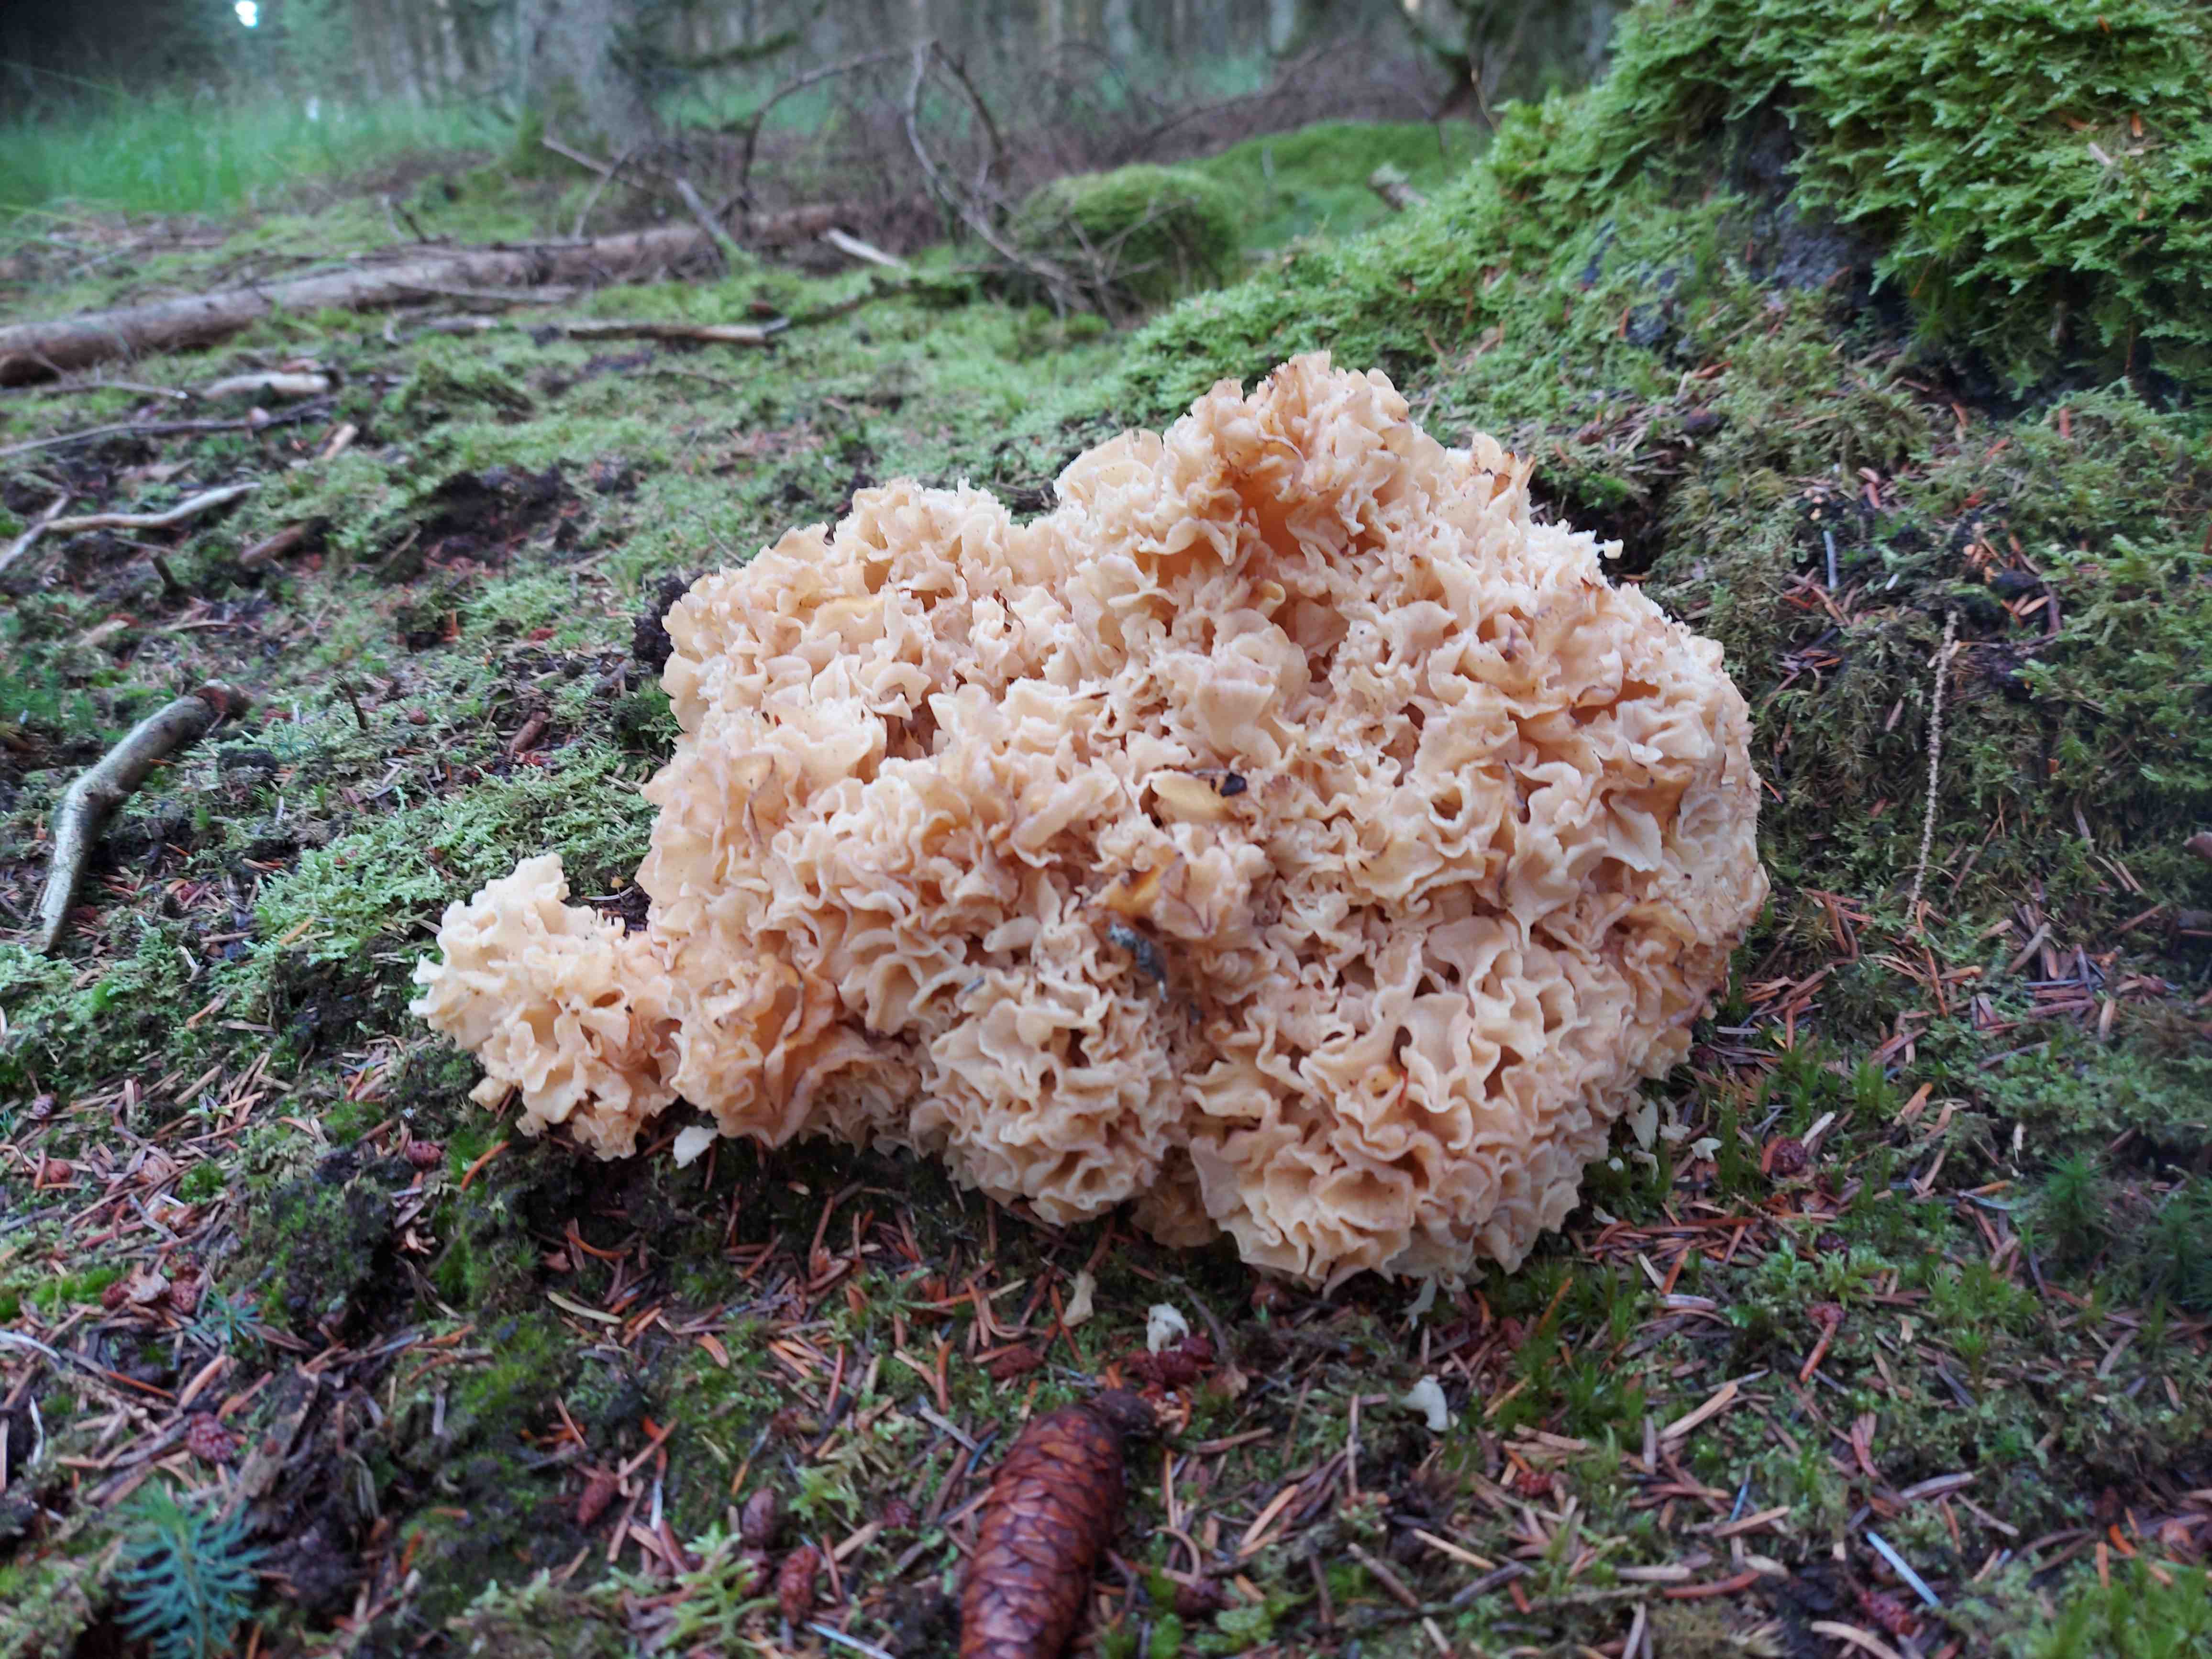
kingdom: Fungi
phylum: Basidiomycota
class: Agaricomycetes
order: Polyporales
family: Sparassidaceae
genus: Sparassis
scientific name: Sparassis crispa
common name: kruset blomkålssvamp
